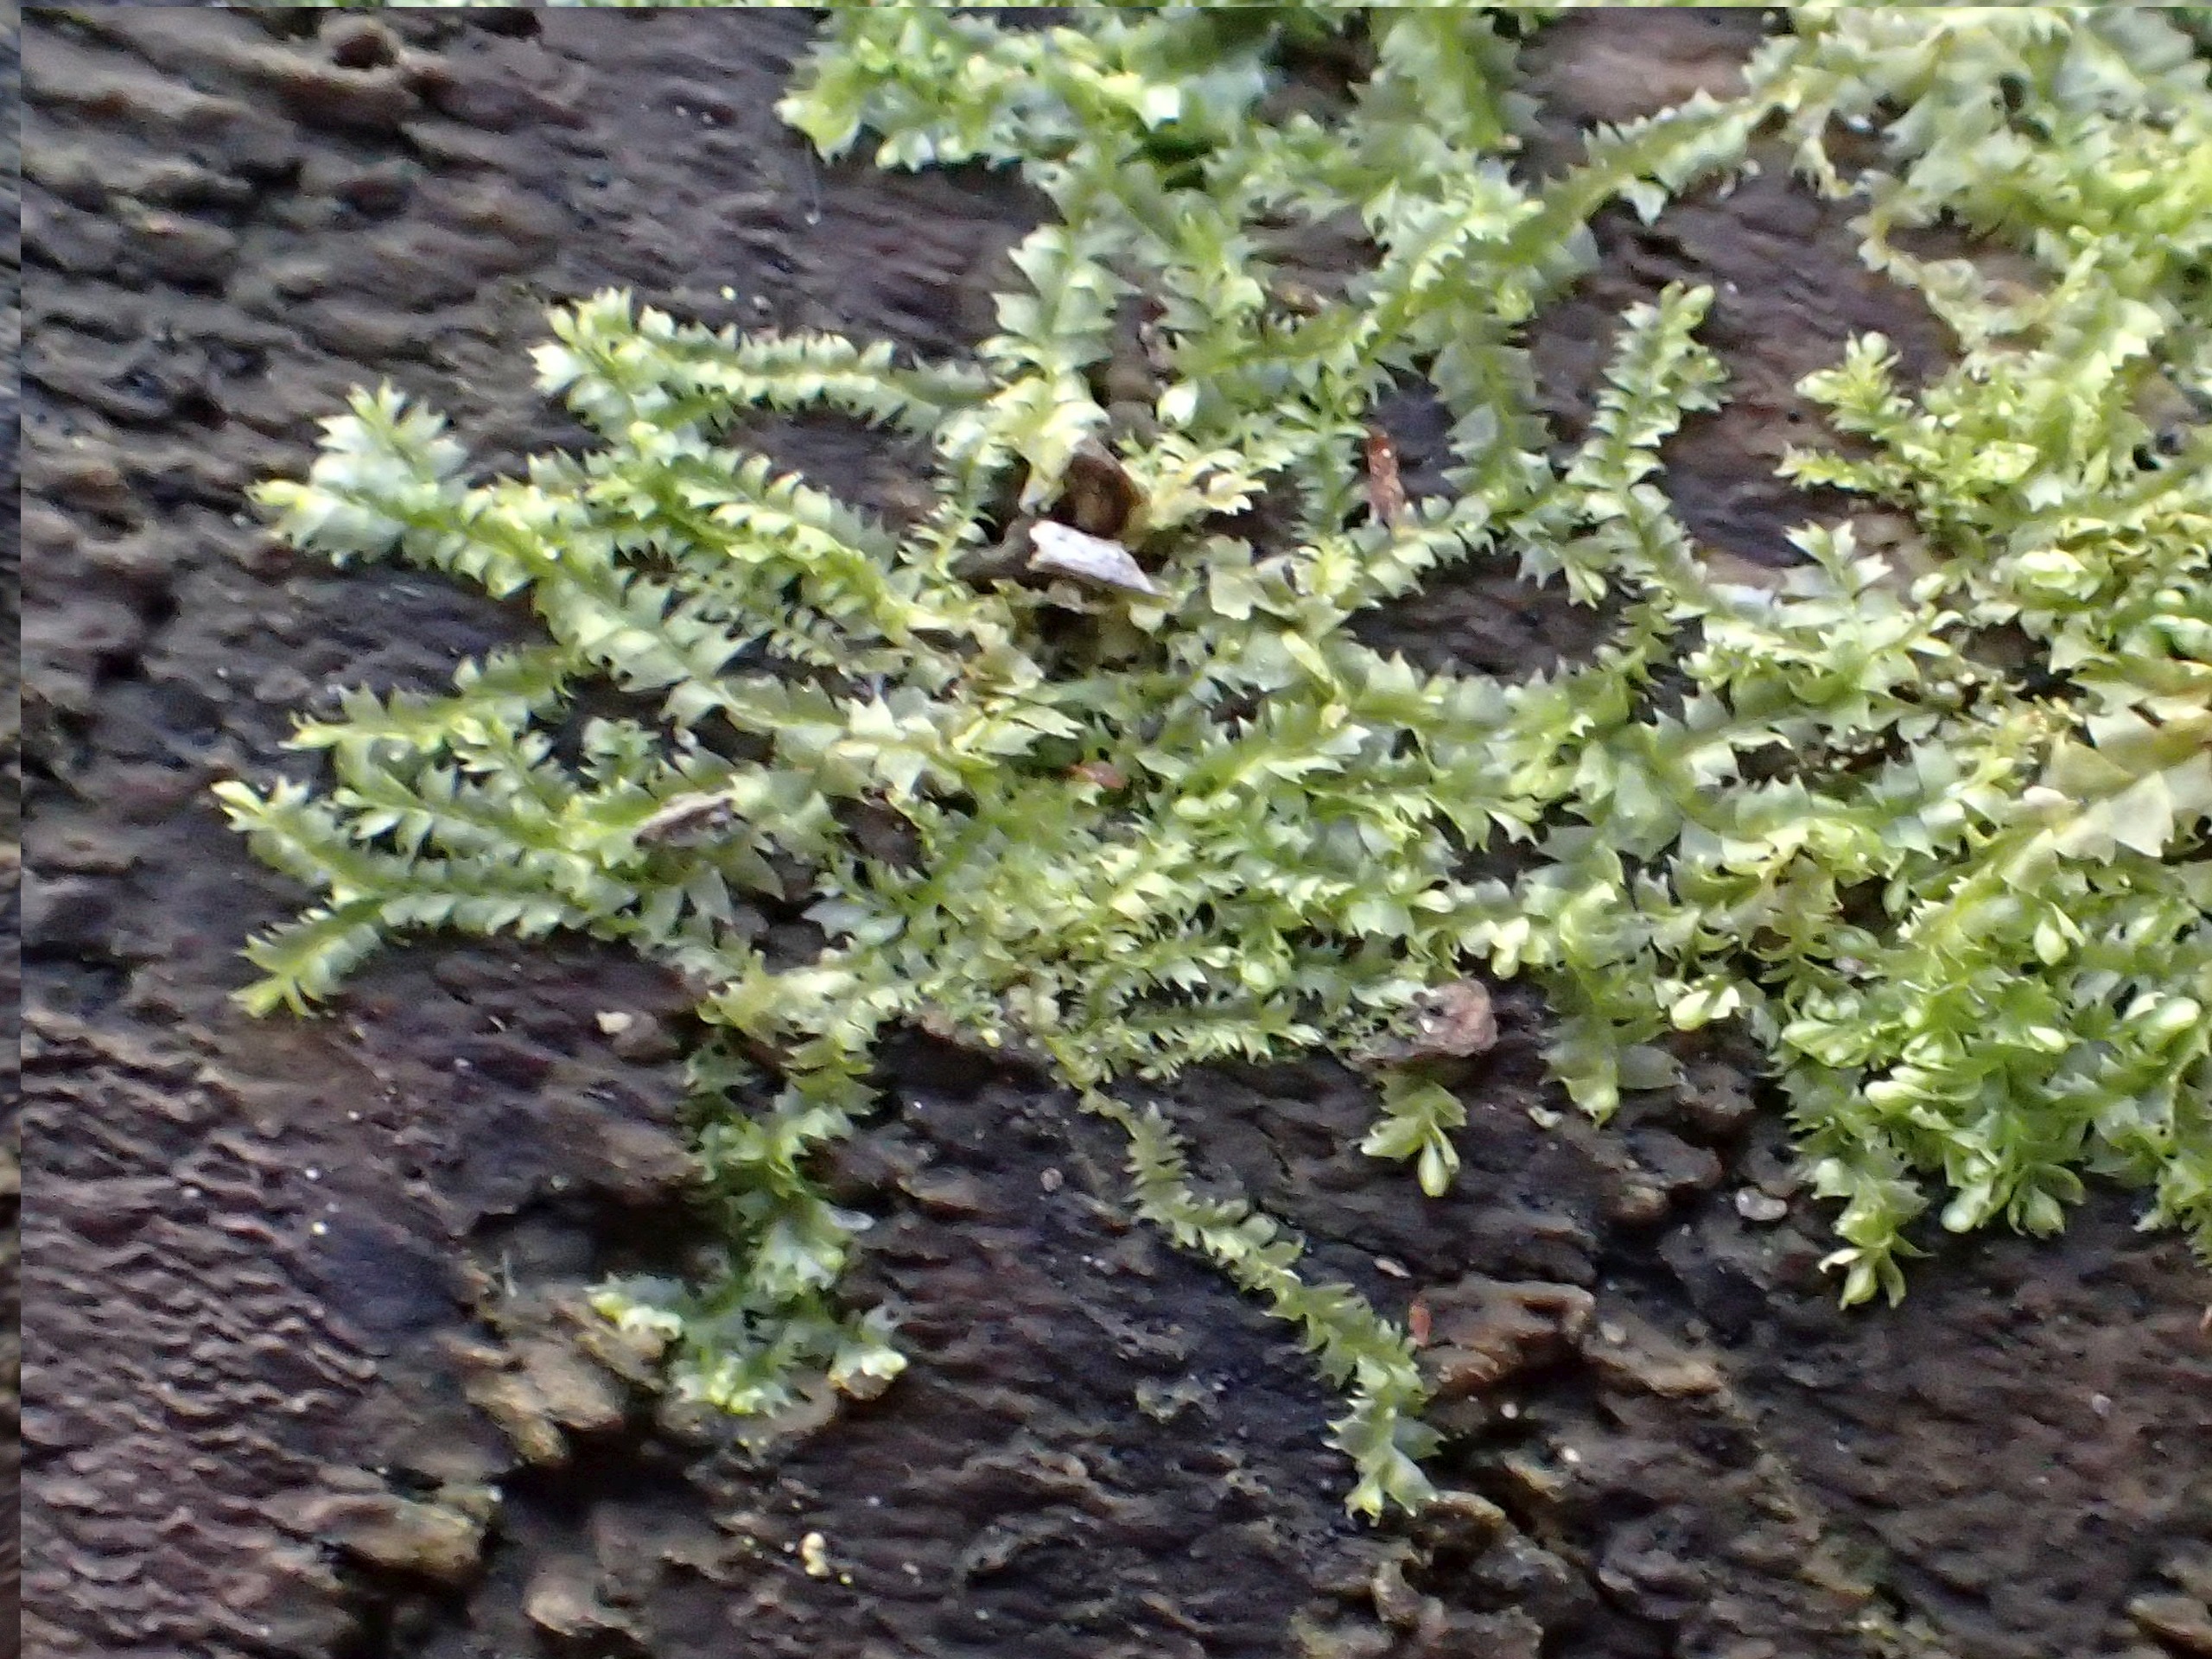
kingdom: Plantae
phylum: Marchantiophyta
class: Jungermanniopsida
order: Jungermanniales
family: Lophocoleaceae
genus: Lophocolea
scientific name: Lophocolea heterophylla
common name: Forskelligbladet kamsvøb
